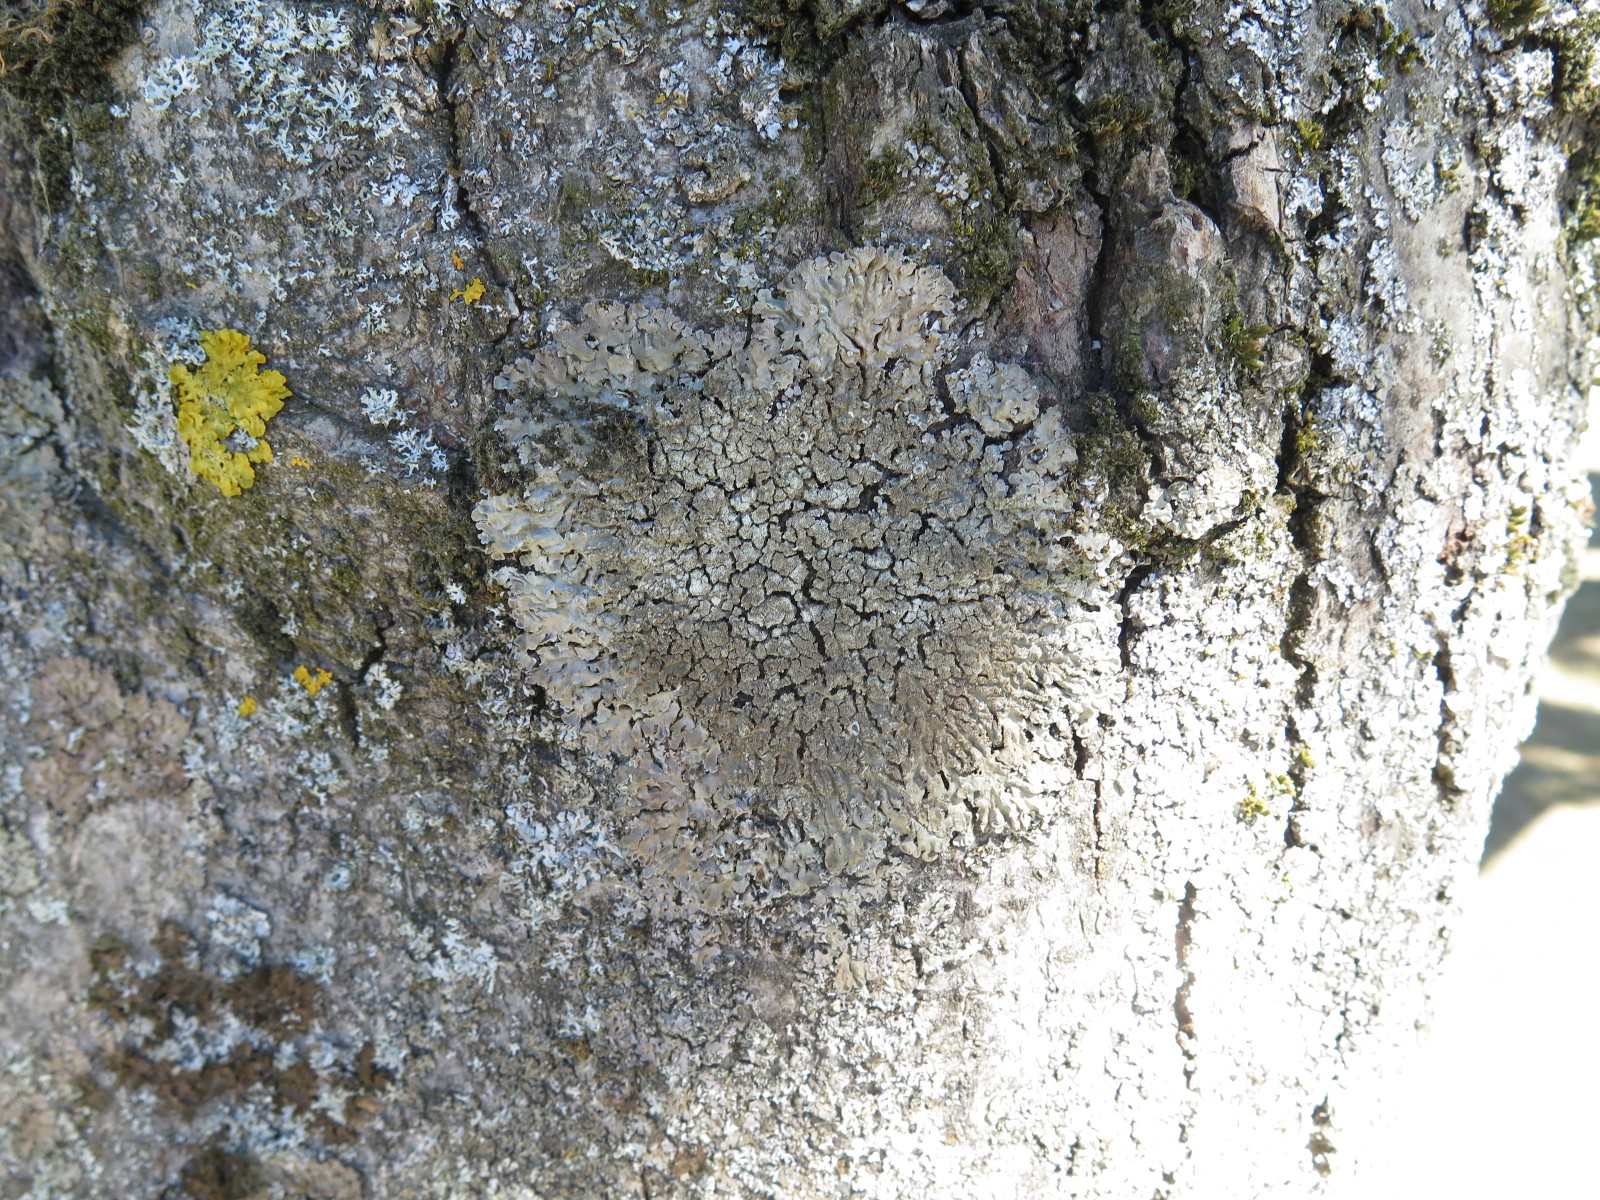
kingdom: Fungi
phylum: Ascomycota
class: Lecanoromycetes
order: Caliciales
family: Physciaceae
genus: Physconia
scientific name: Physconia
